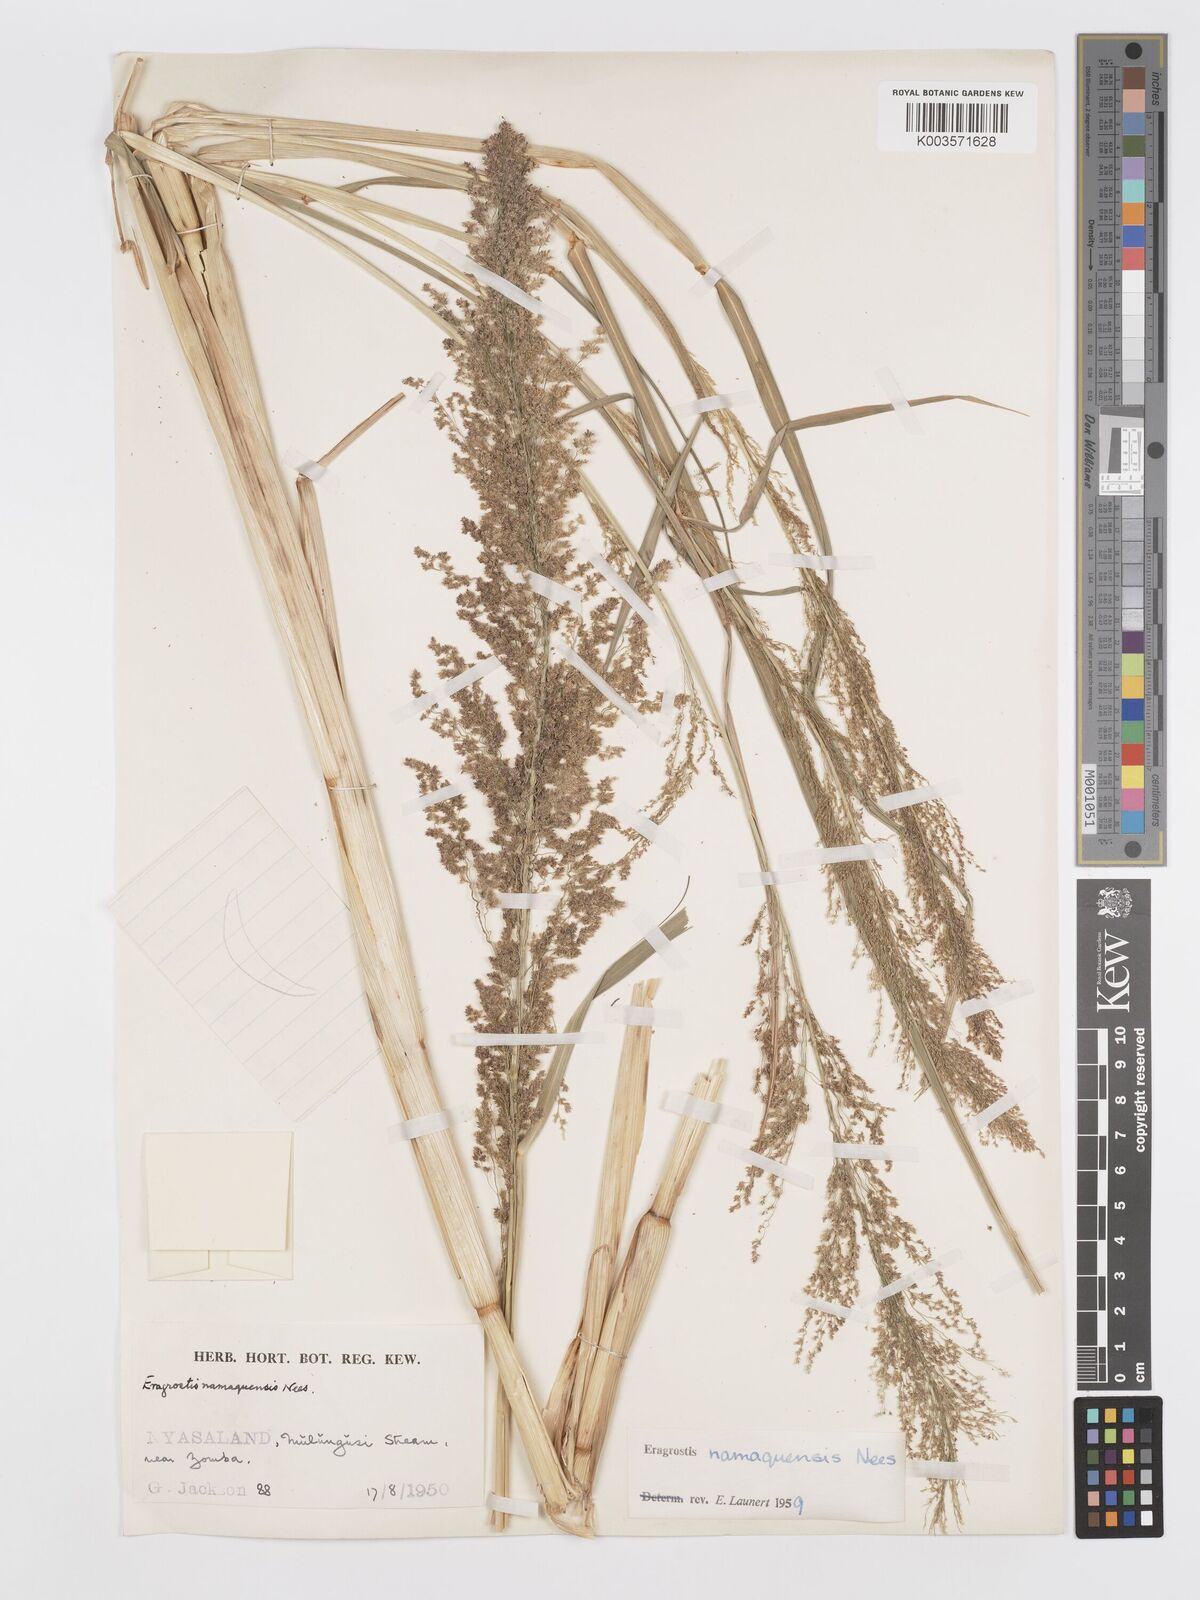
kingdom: Plantae
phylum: Tracheophyta
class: Liliopsida
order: Poales
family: Poaceae
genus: Eragrostis
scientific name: Eragrostis japonica
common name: Pond lovegrass
